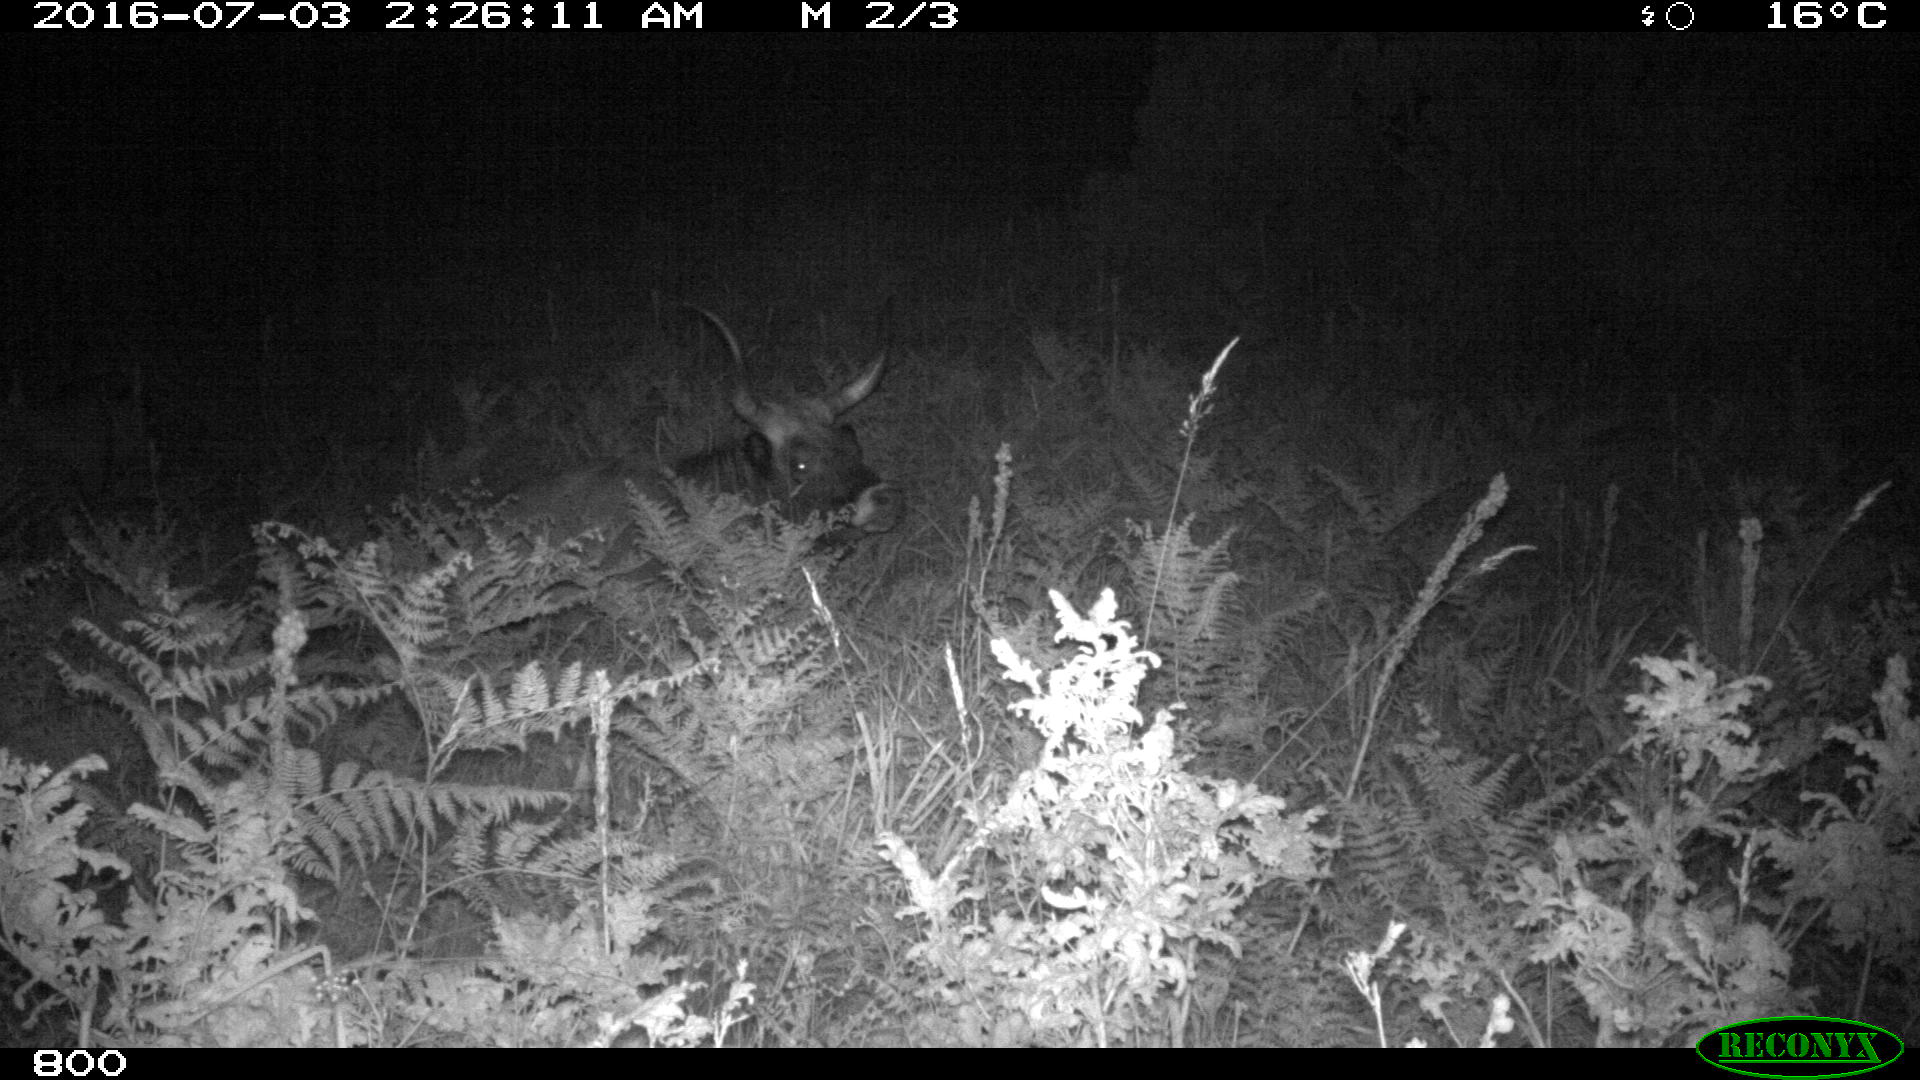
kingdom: Animalia
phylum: Chordata
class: Mammalia
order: Artiodactyla
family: Bovidae
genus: Bos
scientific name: Bos taurus
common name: Domesticated cattle
